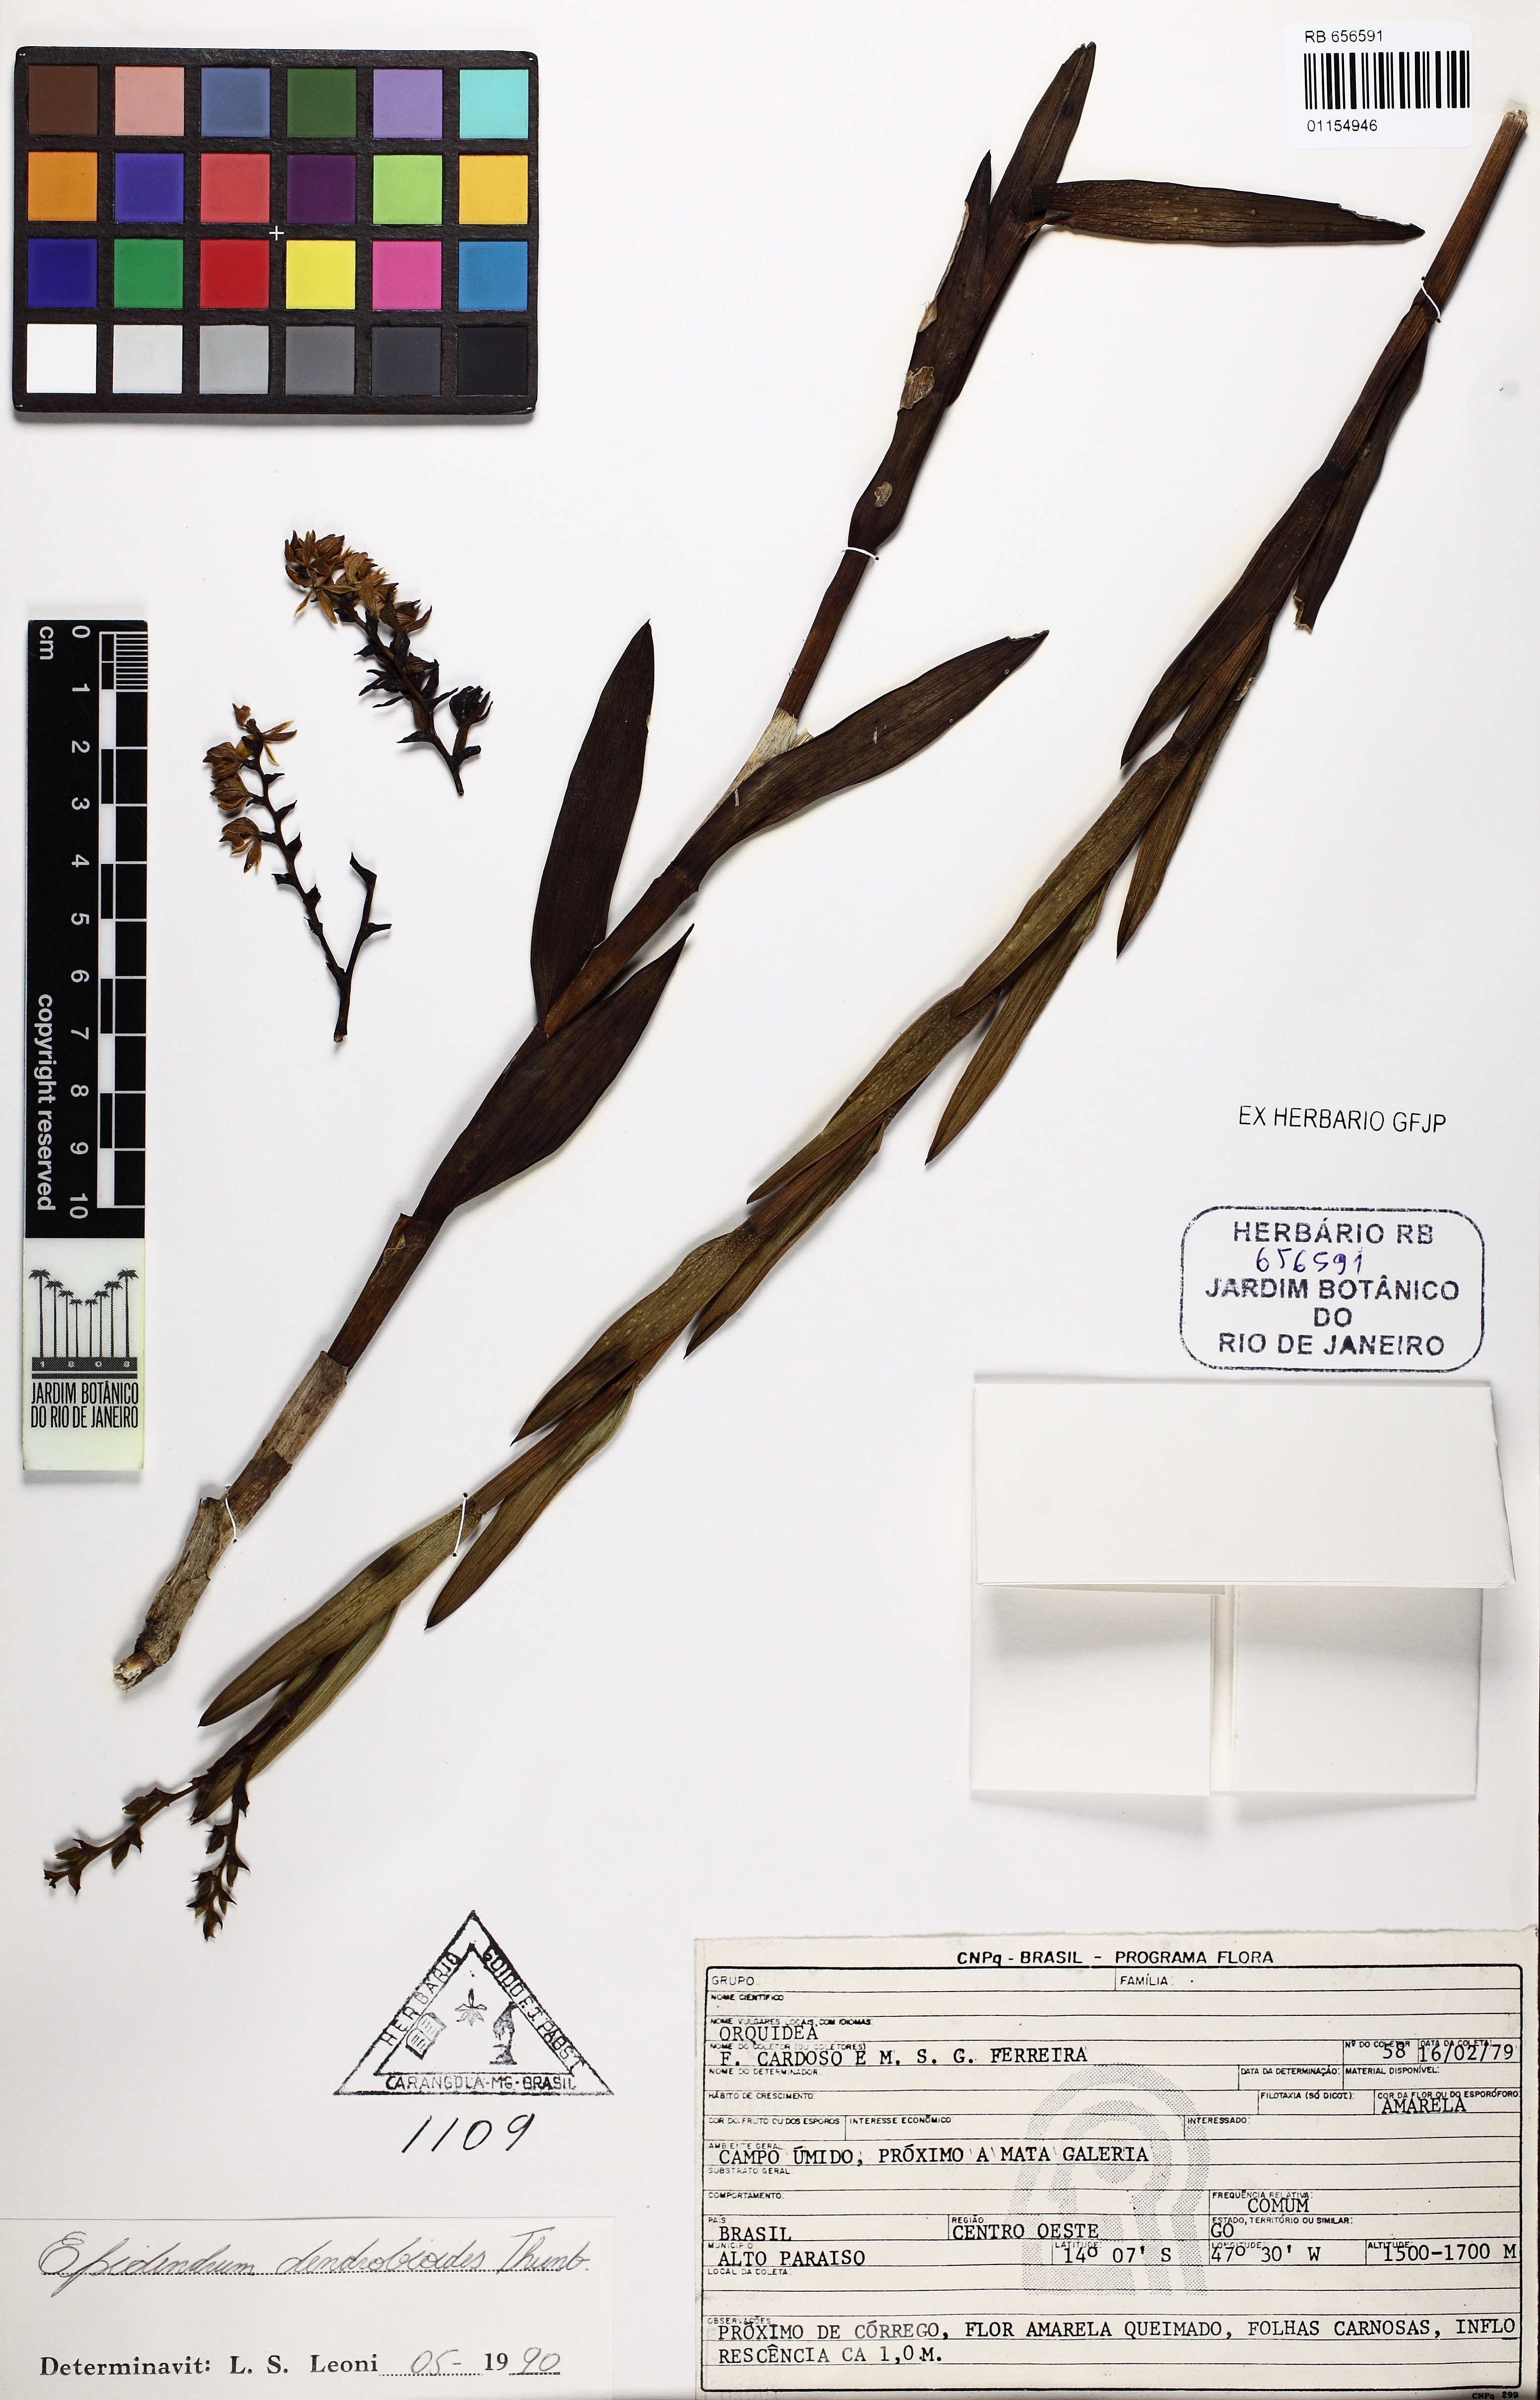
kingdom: Plantae
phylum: Tracheophyta
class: Liliopsida
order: Asparagales
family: Orchidaceae
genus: Epidendrum
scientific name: Epidendrum dendrobioides
